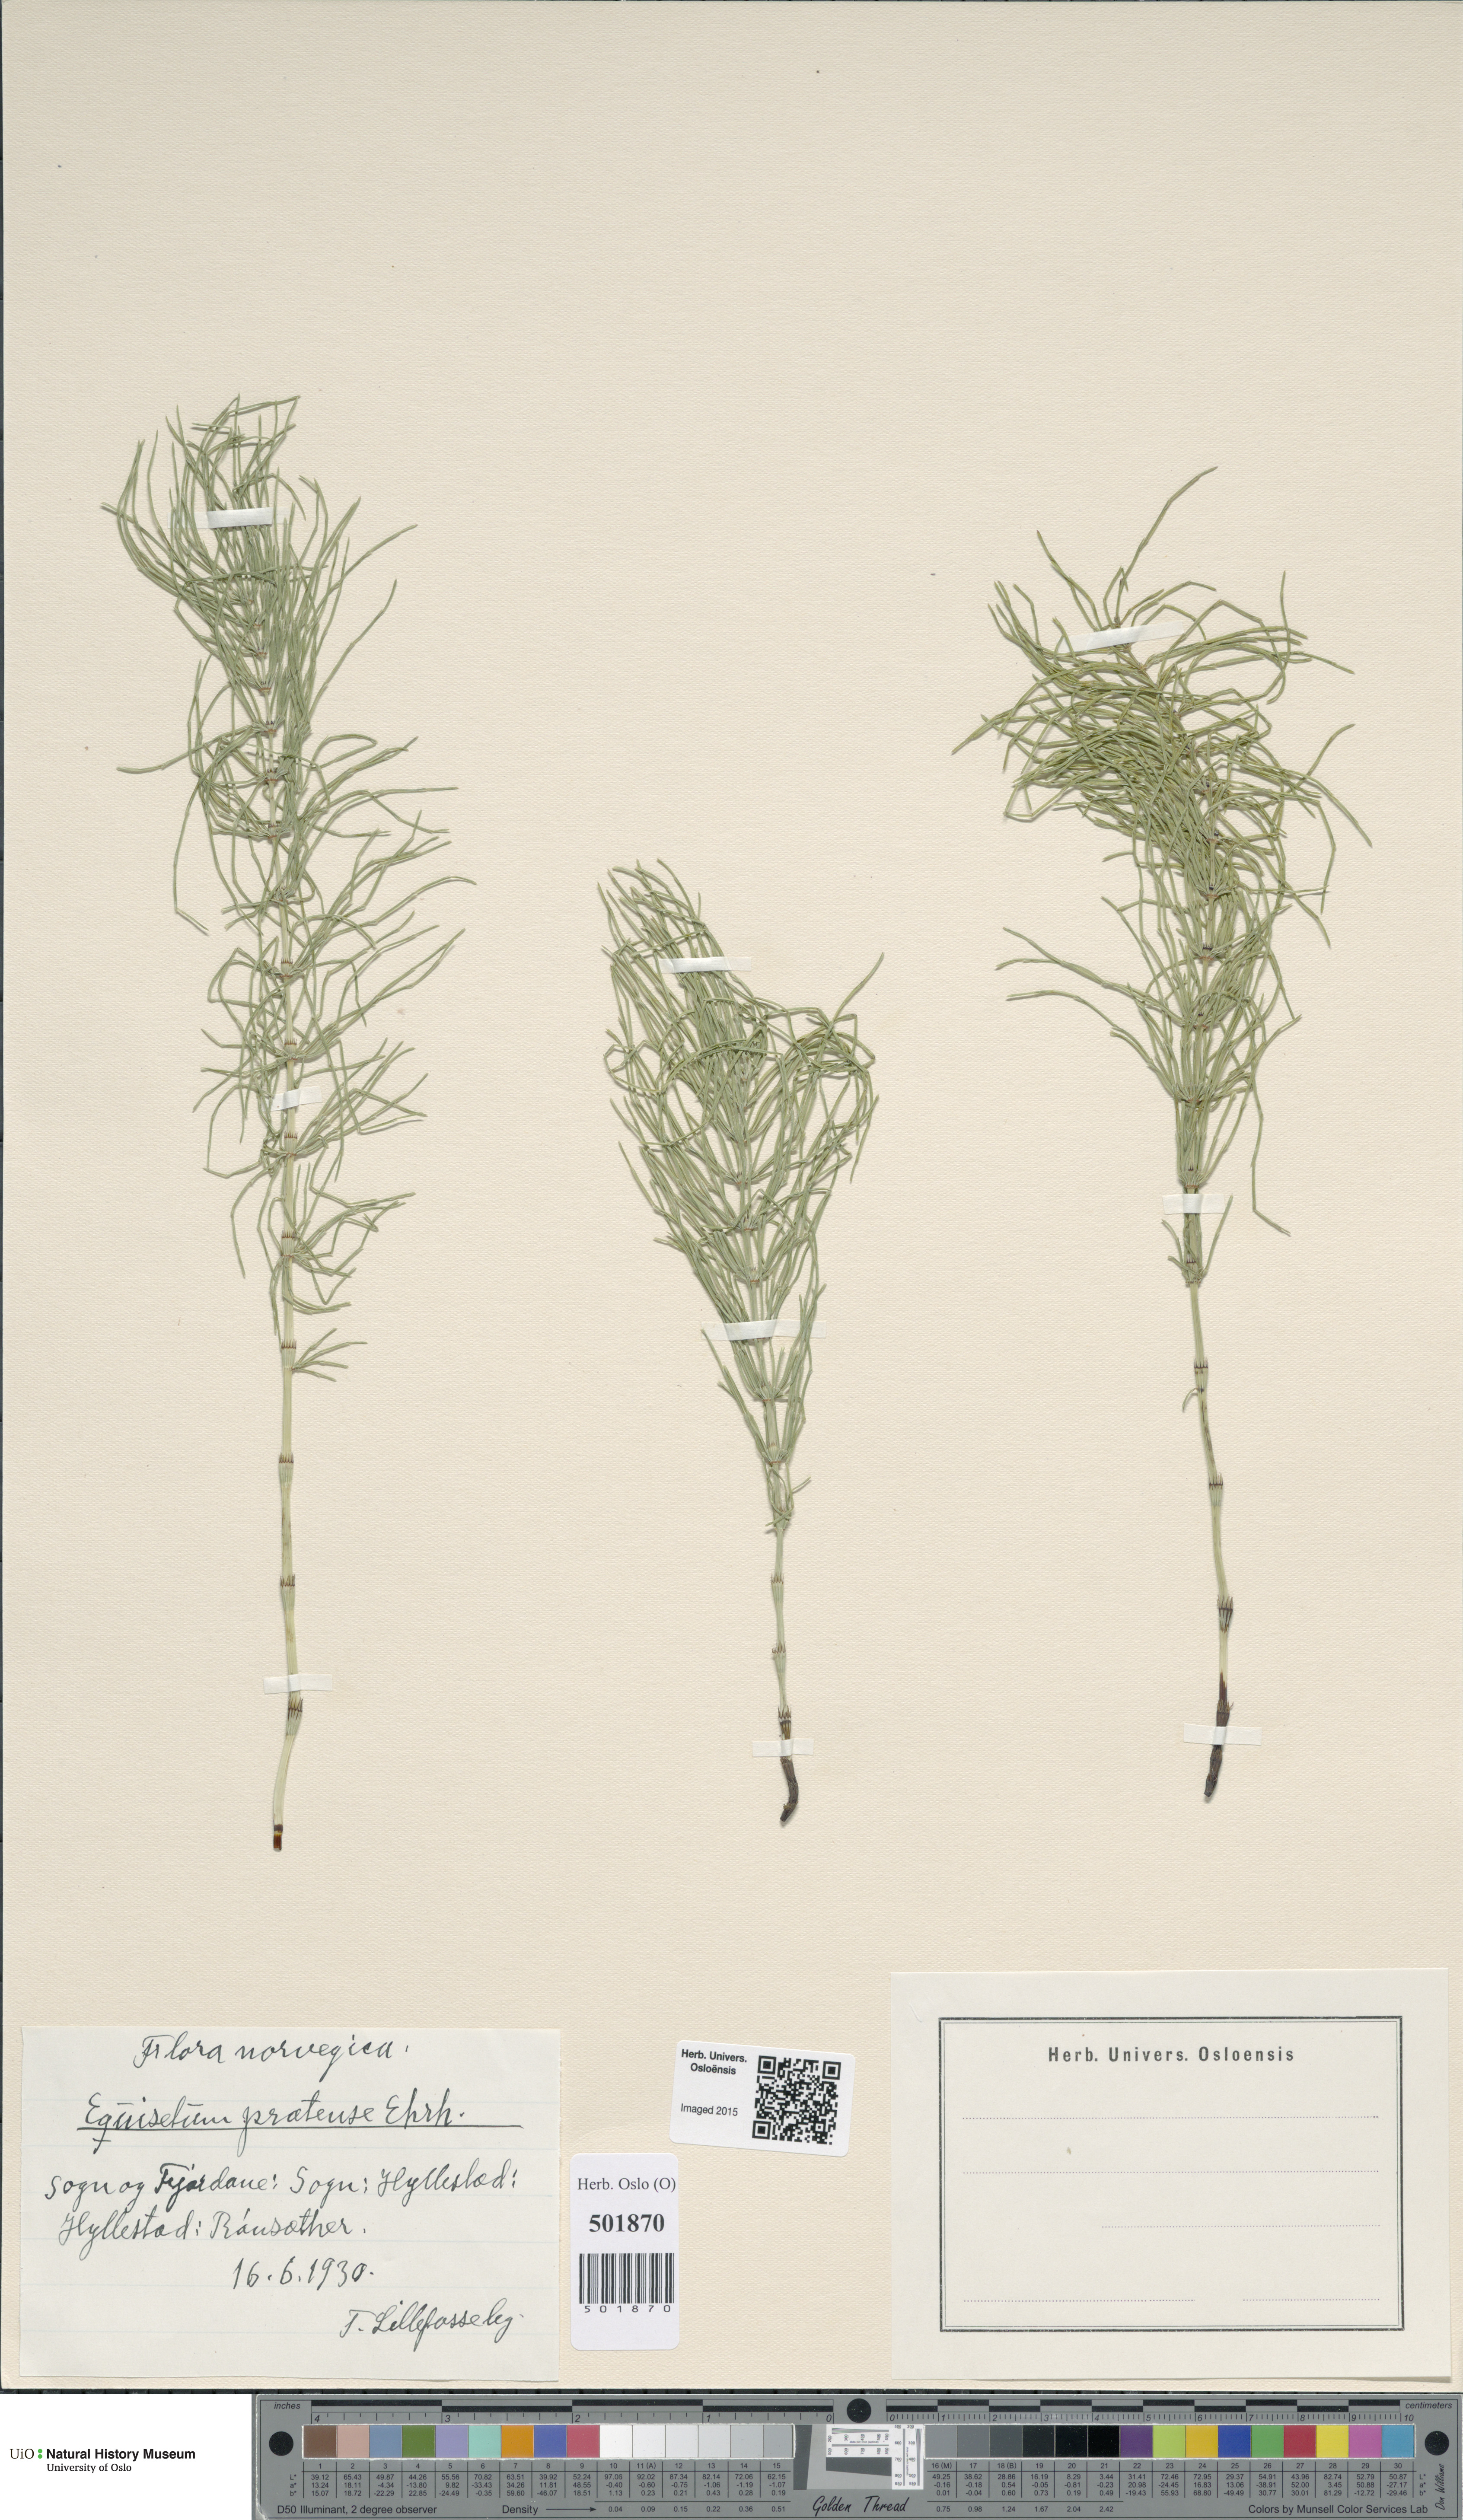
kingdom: Plantae
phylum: Tracheophyta
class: Polypodiopsida
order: Equisetales
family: Equisetaceae
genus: Equisetum
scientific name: Equisetum pratense
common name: Meadow horsetail
